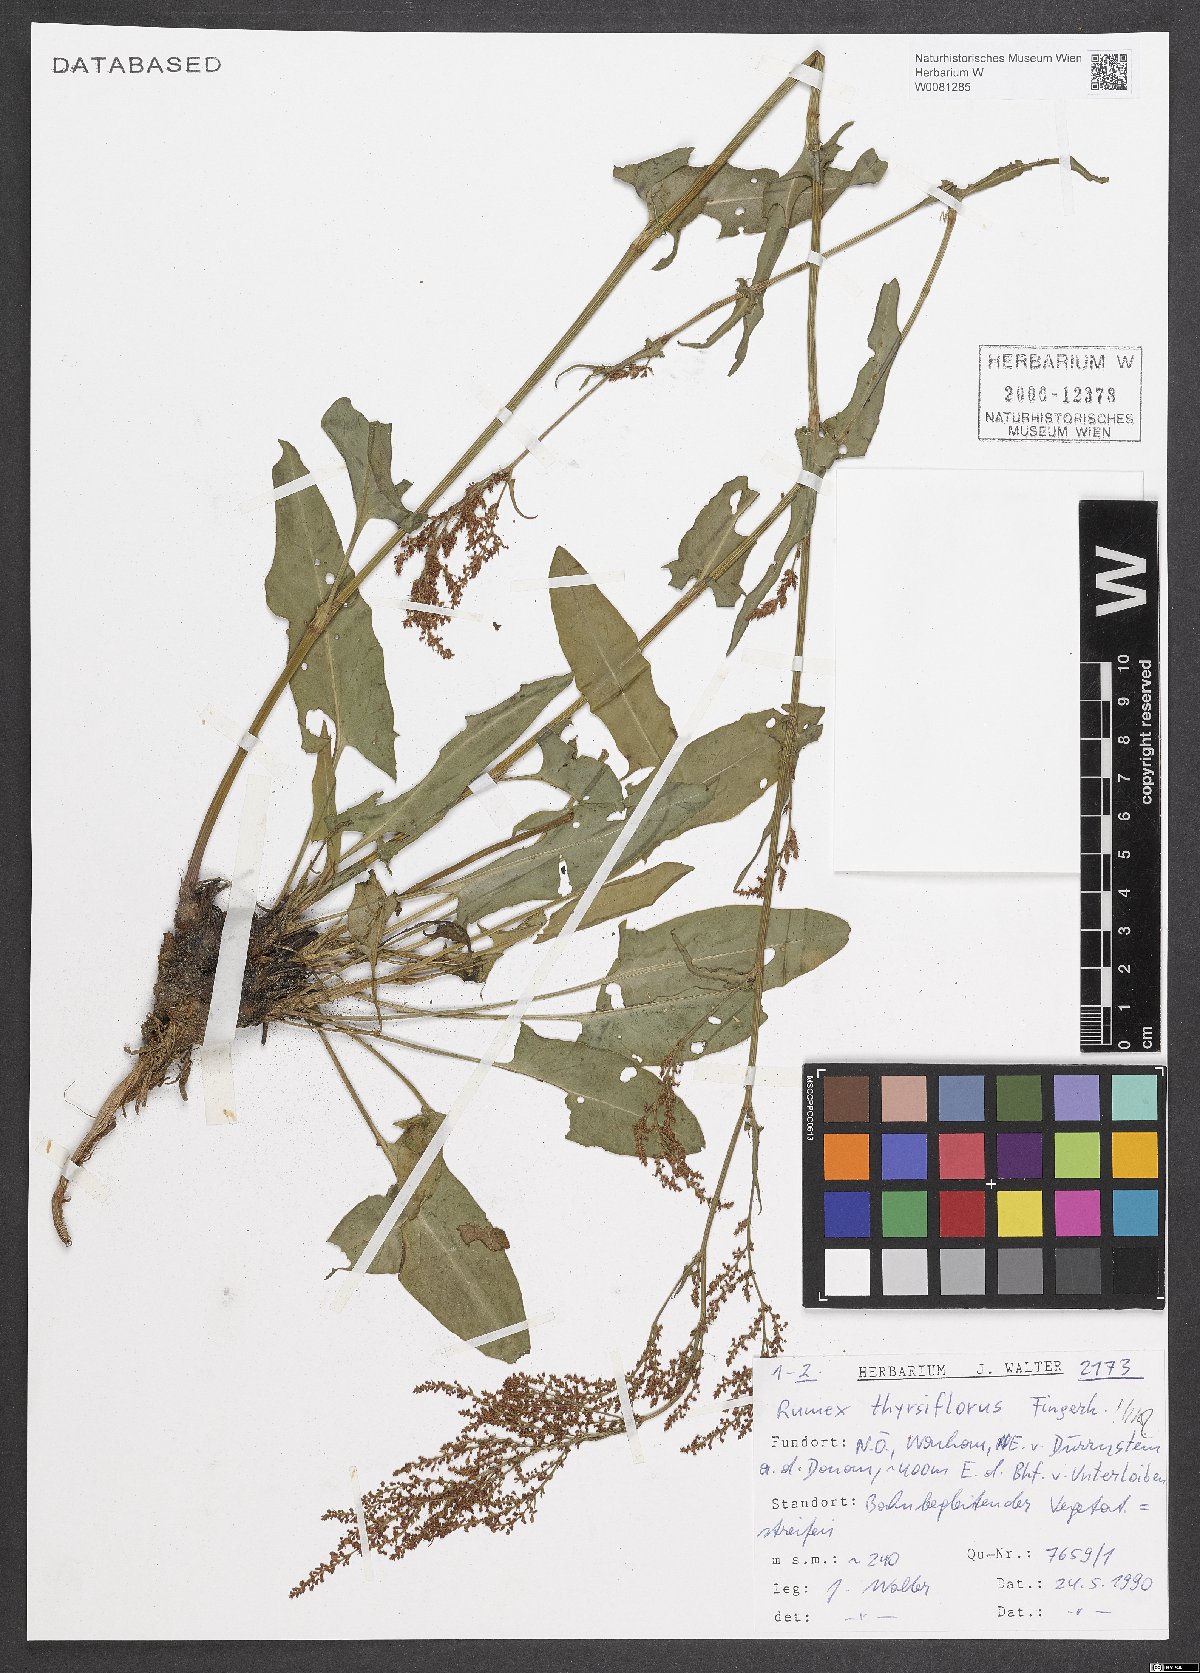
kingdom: Plantae
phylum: Tracheophyta
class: Magnoliopsida
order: Caryophyllales
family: Polygonaceae
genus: Rumex
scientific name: Rumex thyrsiflorus
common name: Garden sorrel
